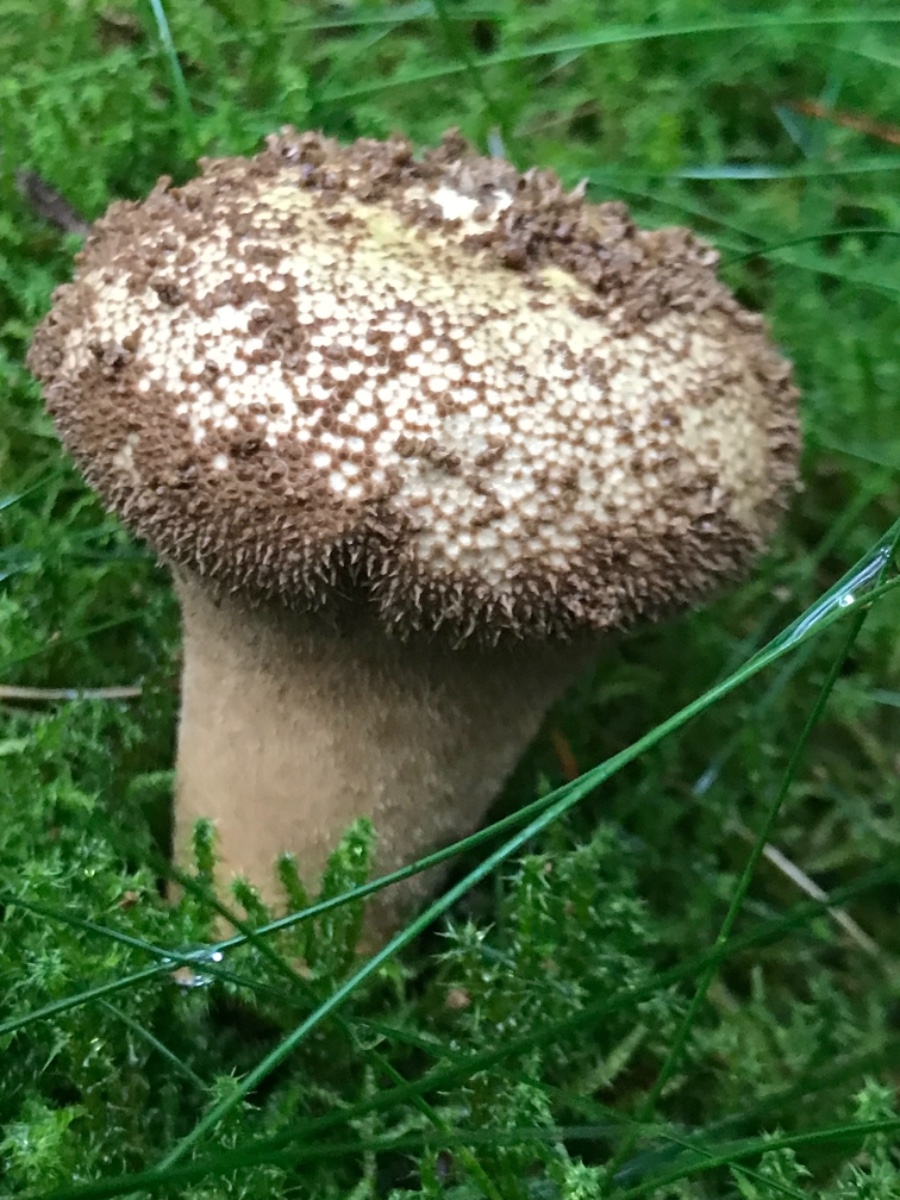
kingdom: Fungi
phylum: Basidiomycota
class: Agaricomycetes
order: Agaricales
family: Lycoperdaceae
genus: Lycoperdon
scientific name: Lycoperdon nigrescens
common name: sortagtig støvbold
